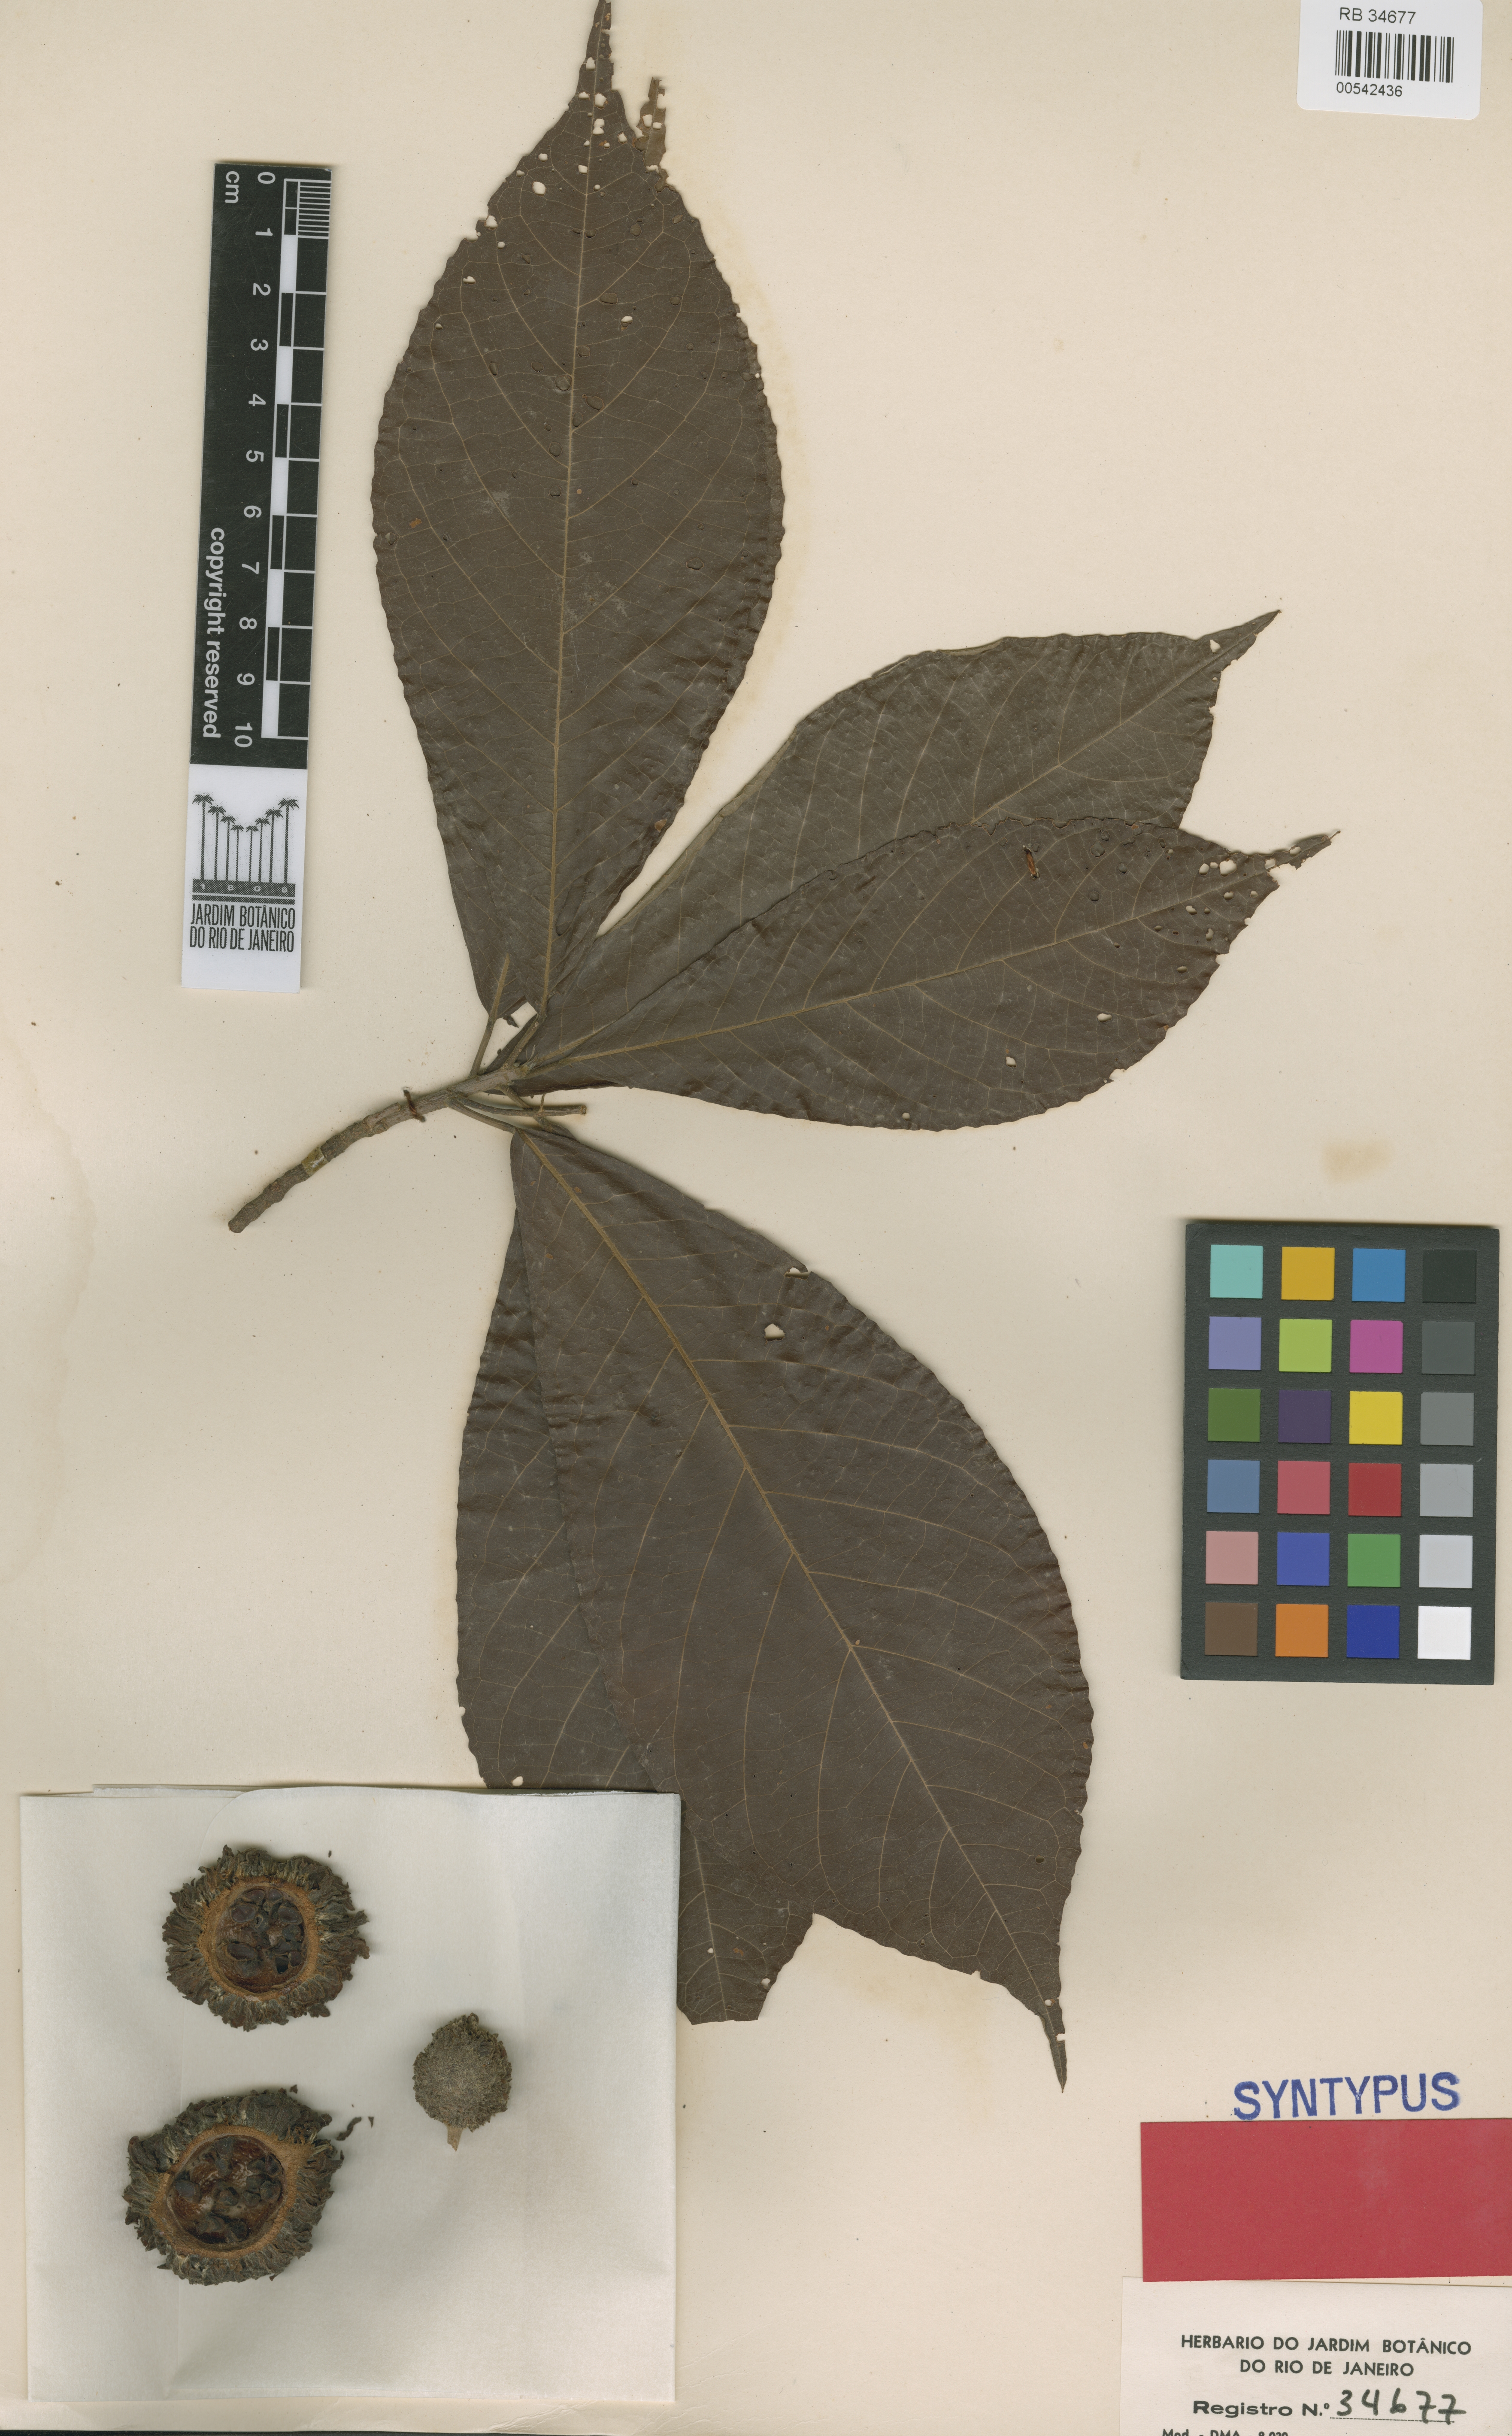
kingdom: Plantae
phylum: Tracheophyta
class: Magnoliopsida
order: Malpighiales
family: Achariaceae
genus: Carpotroche
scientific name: Carpotroche crispidentata
